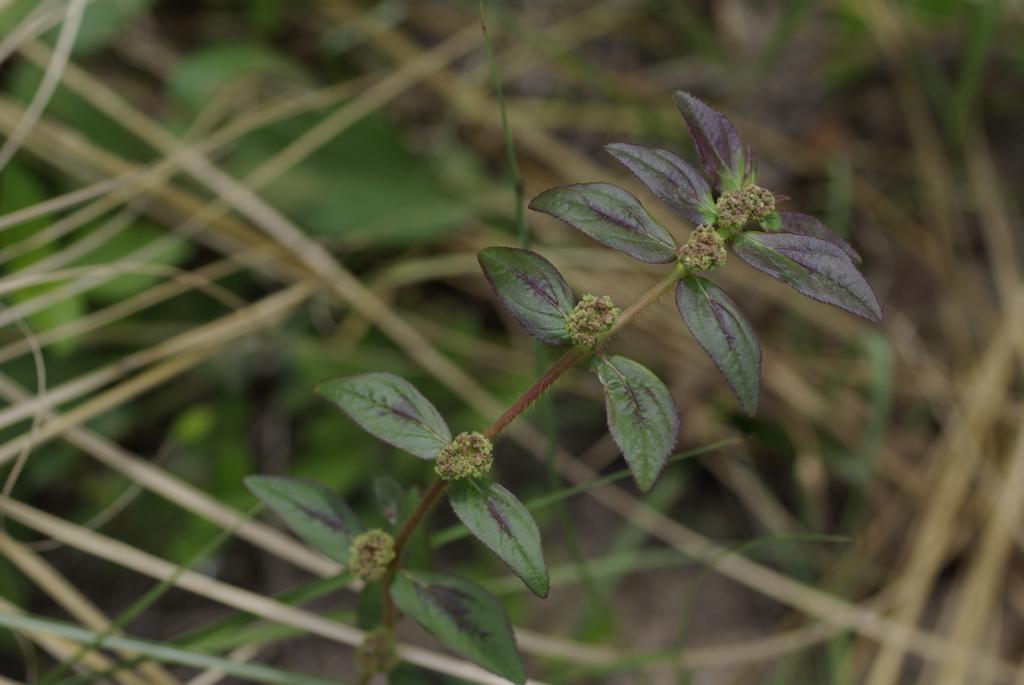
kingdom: Plantae
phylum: Tracheophyta
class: Magnoliopsida
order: Malpighiales
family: Euphorbiaceae
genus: Euphorbia
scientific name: Euphorbia hirta
